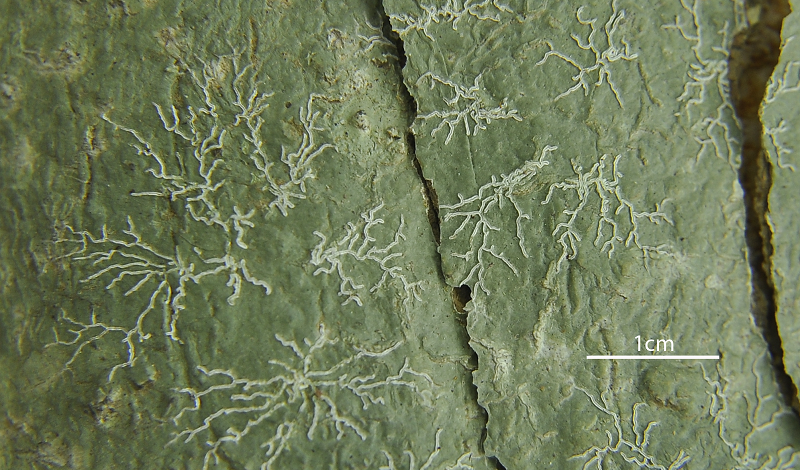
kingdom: Fungi
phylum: Ascomycota
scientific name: Ascomycota
